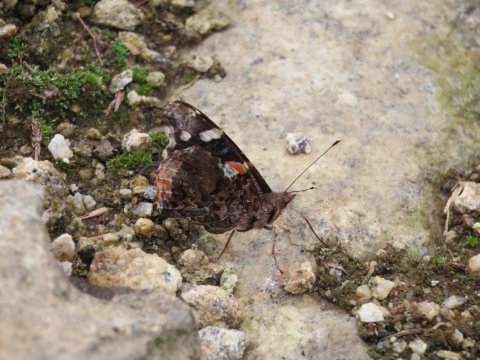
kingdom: Animalia
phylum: Arthropoda
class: Insecta
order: Lepidoptera
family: Nymphalidae
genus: Vanessa
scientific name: Vanessa atalanta
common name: Red Admiral
